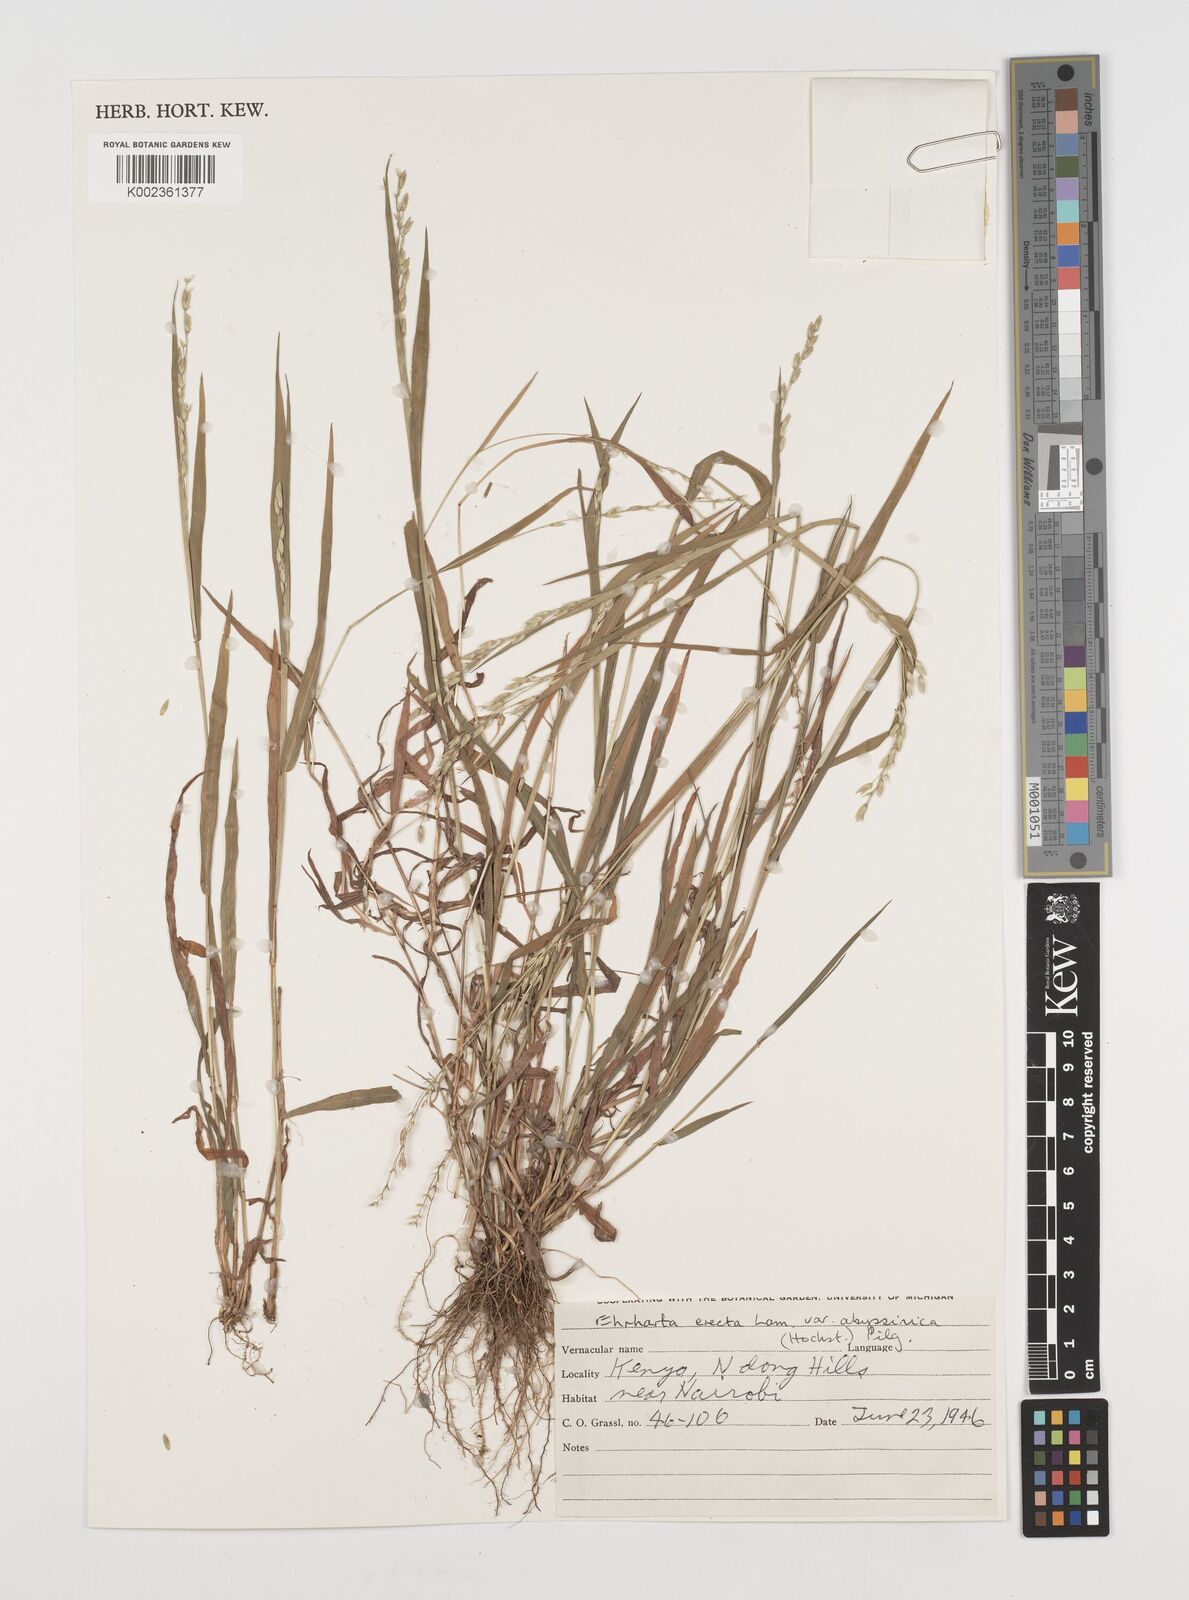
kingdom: Plantae
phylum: Tracheophyta
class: Liliopsida
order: Poales
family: Poaceae
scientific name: Poaceae
